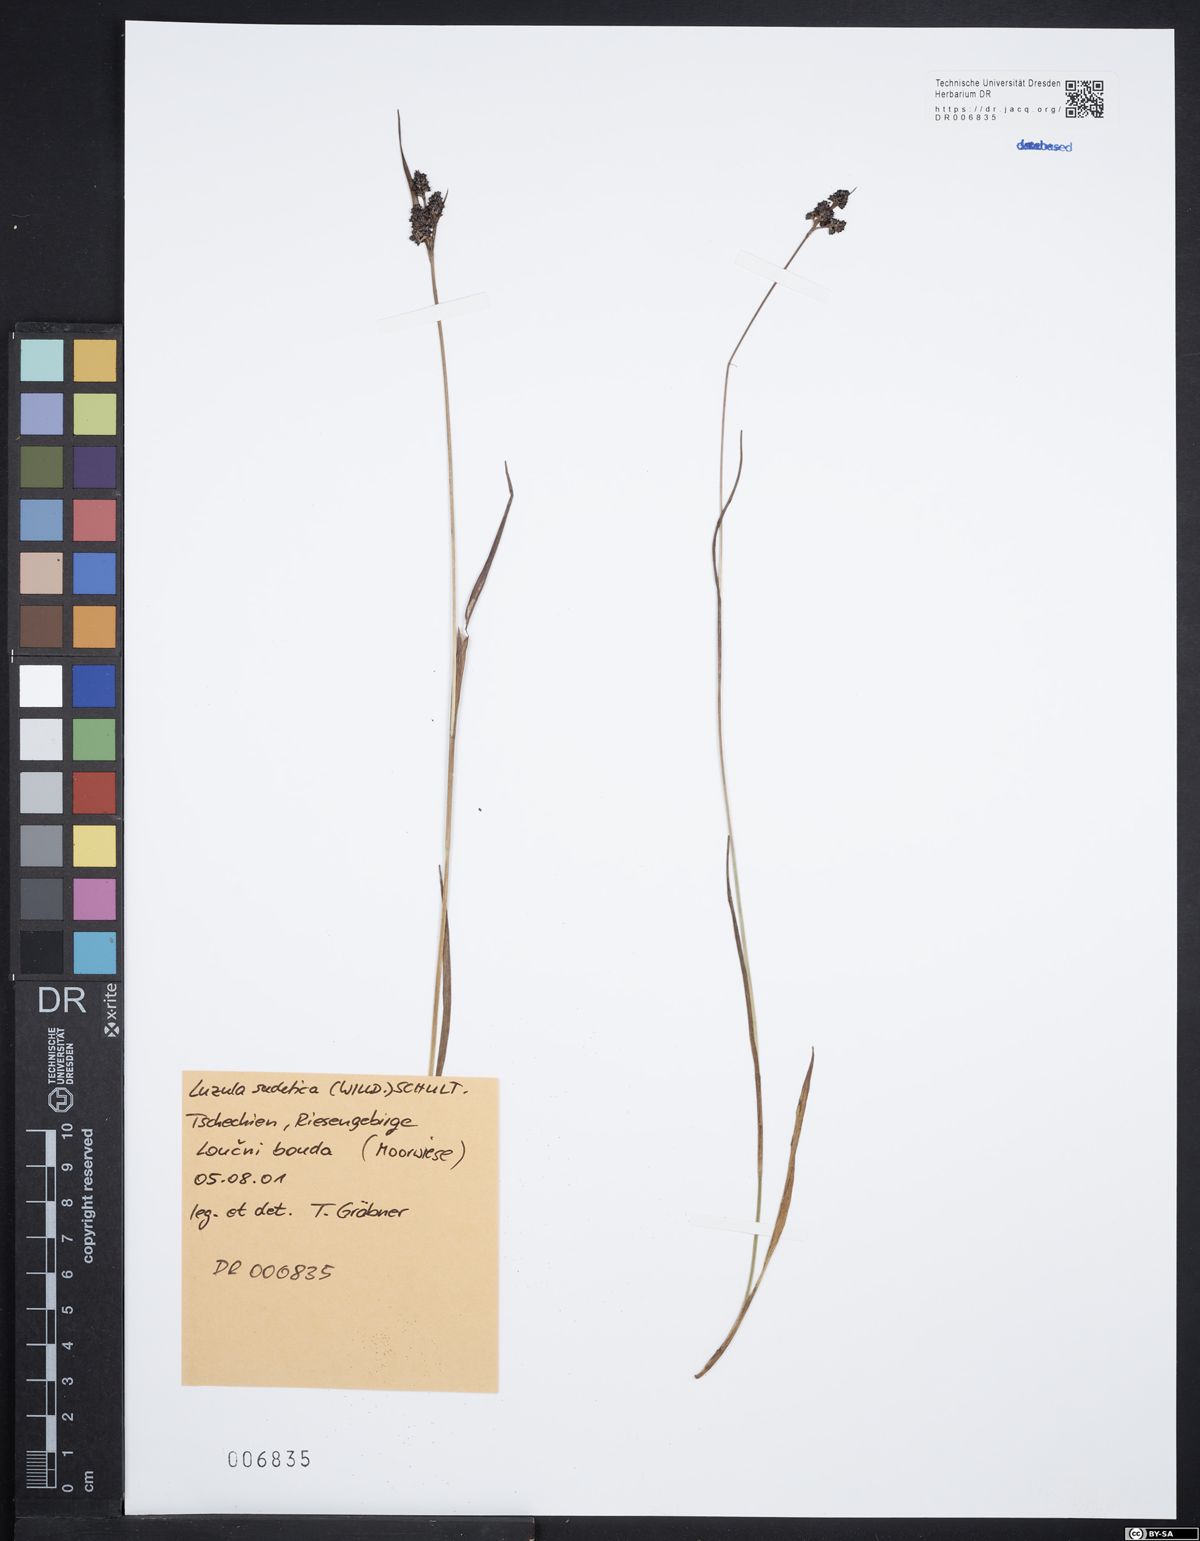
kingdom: Plantae
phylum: Tracheophyta
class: Liliopsida
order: Poales
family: Juncaceae
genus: Luzula
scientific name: Luzula sudetica
